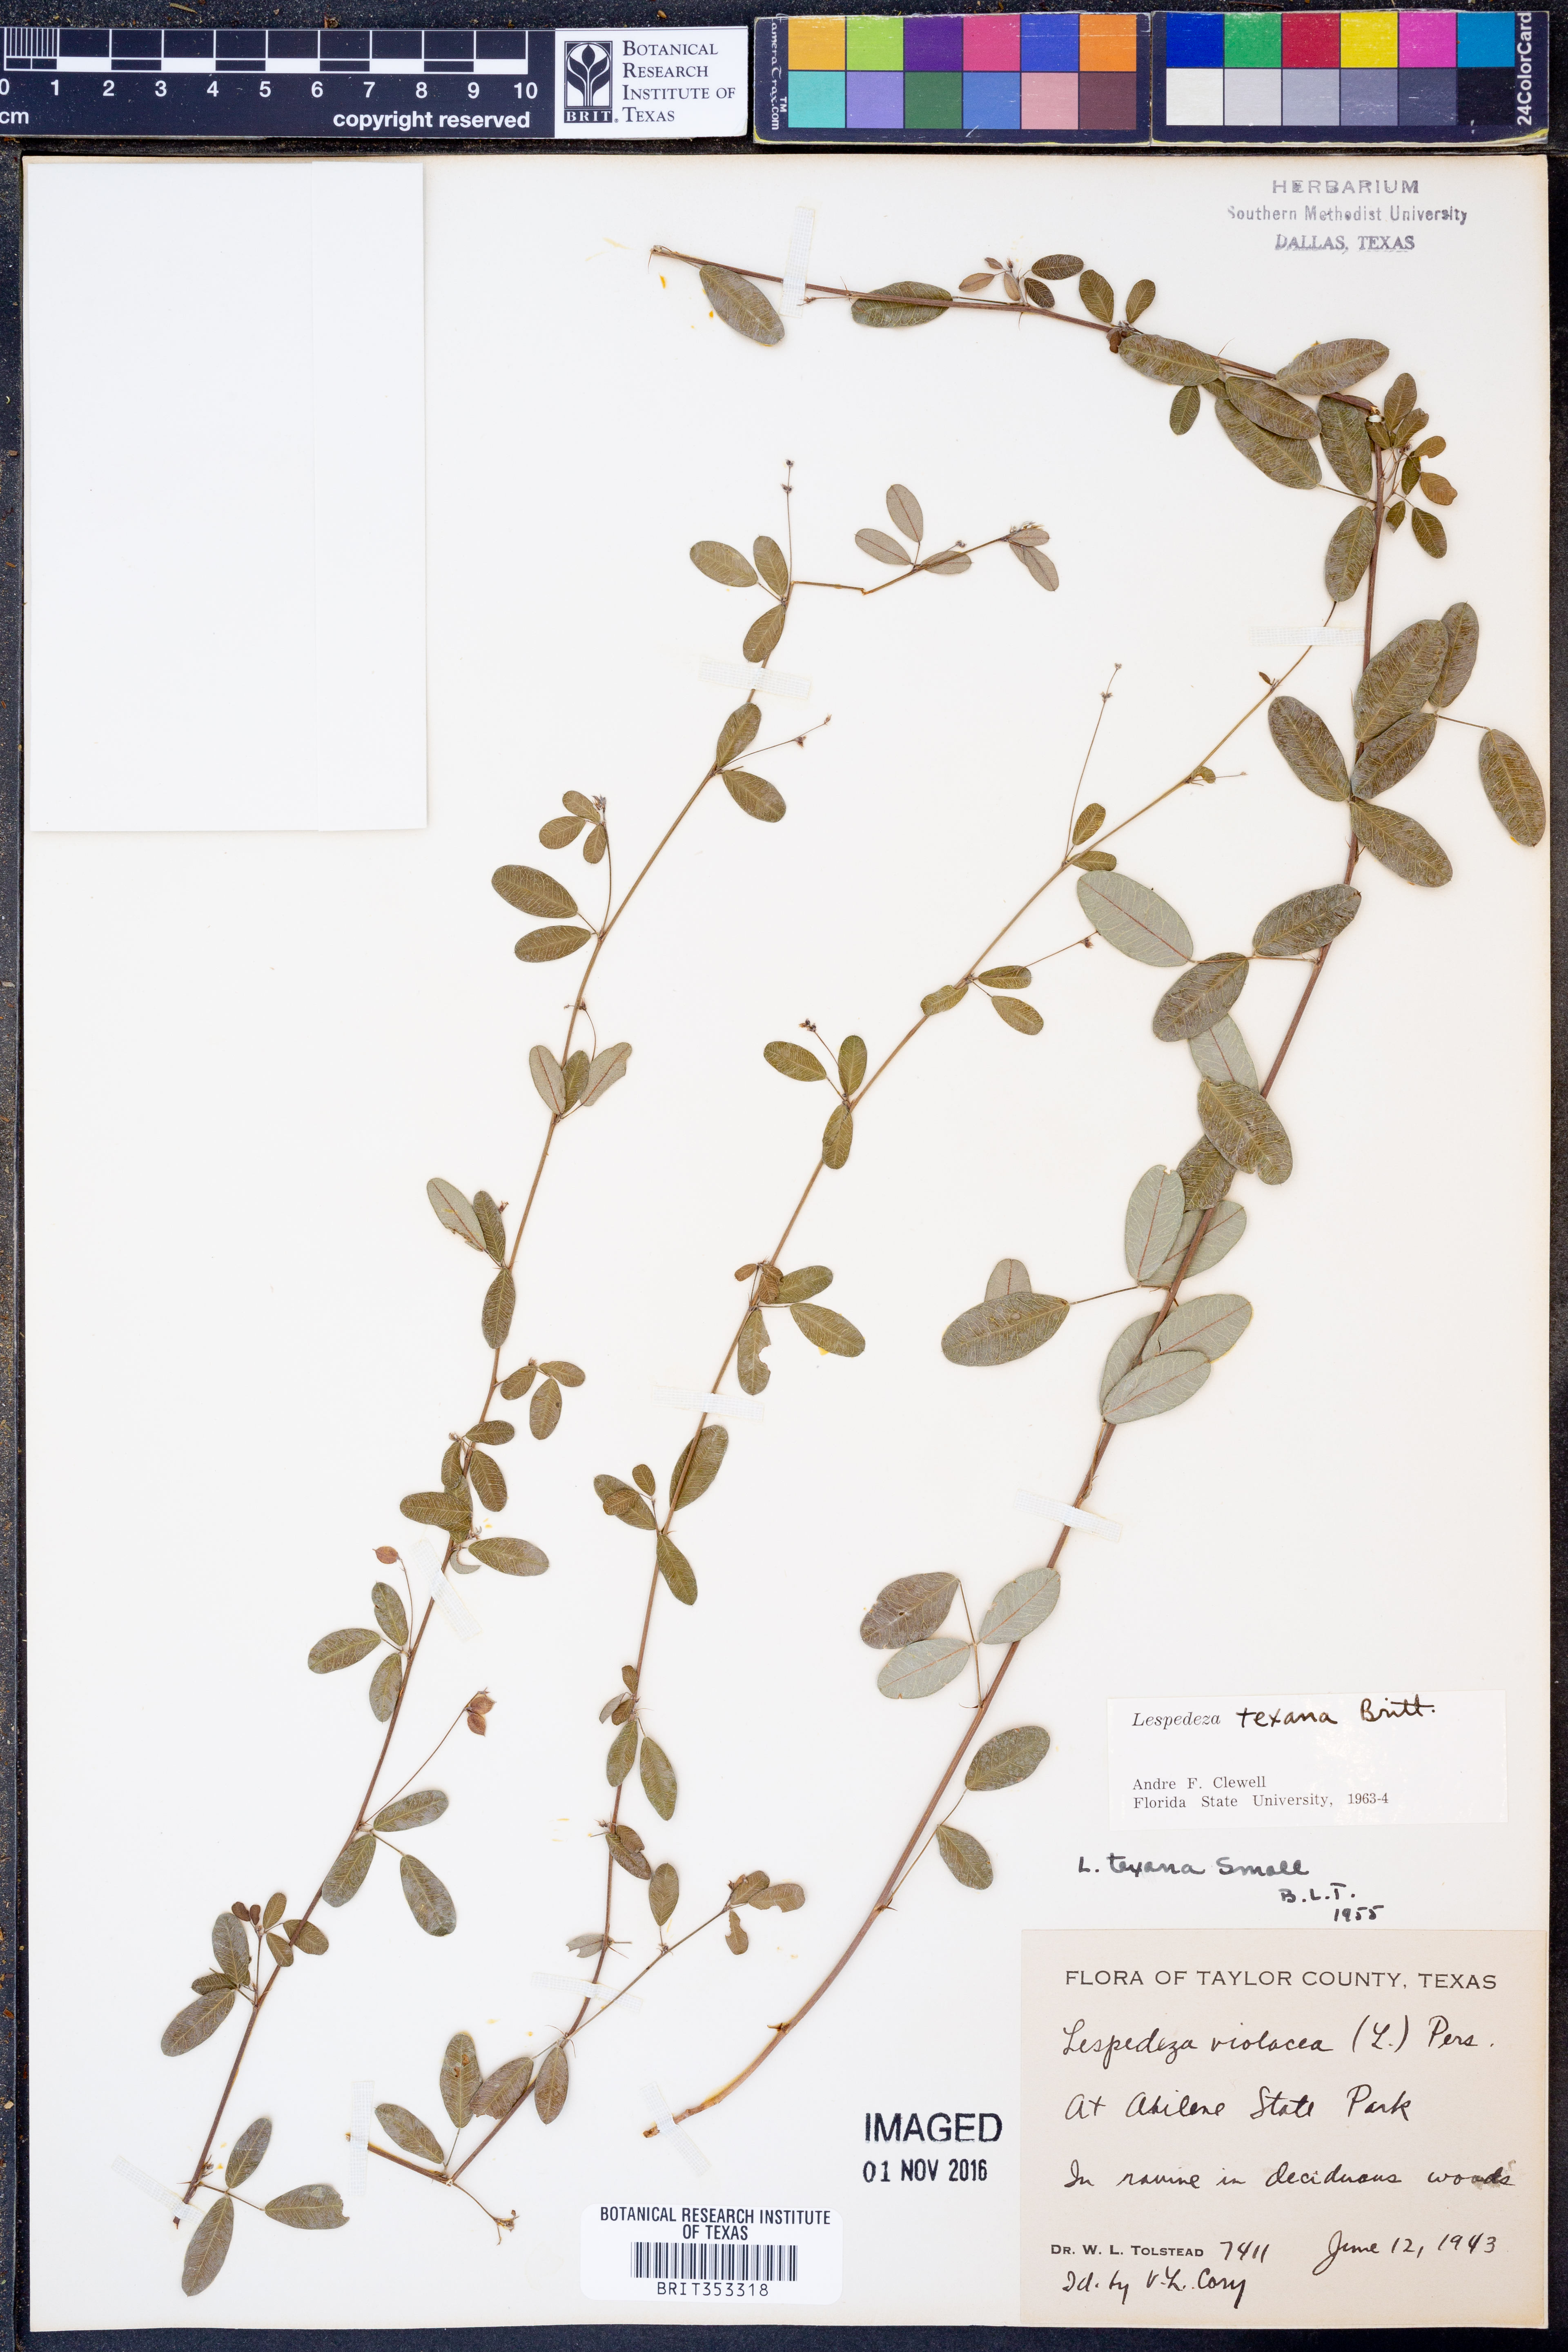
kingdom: Plantae
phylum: Tracheophyta
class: Magnoliopsida
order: Fabales
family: Fabaceae
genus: Lespedeza
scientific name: Lespedeza texana
